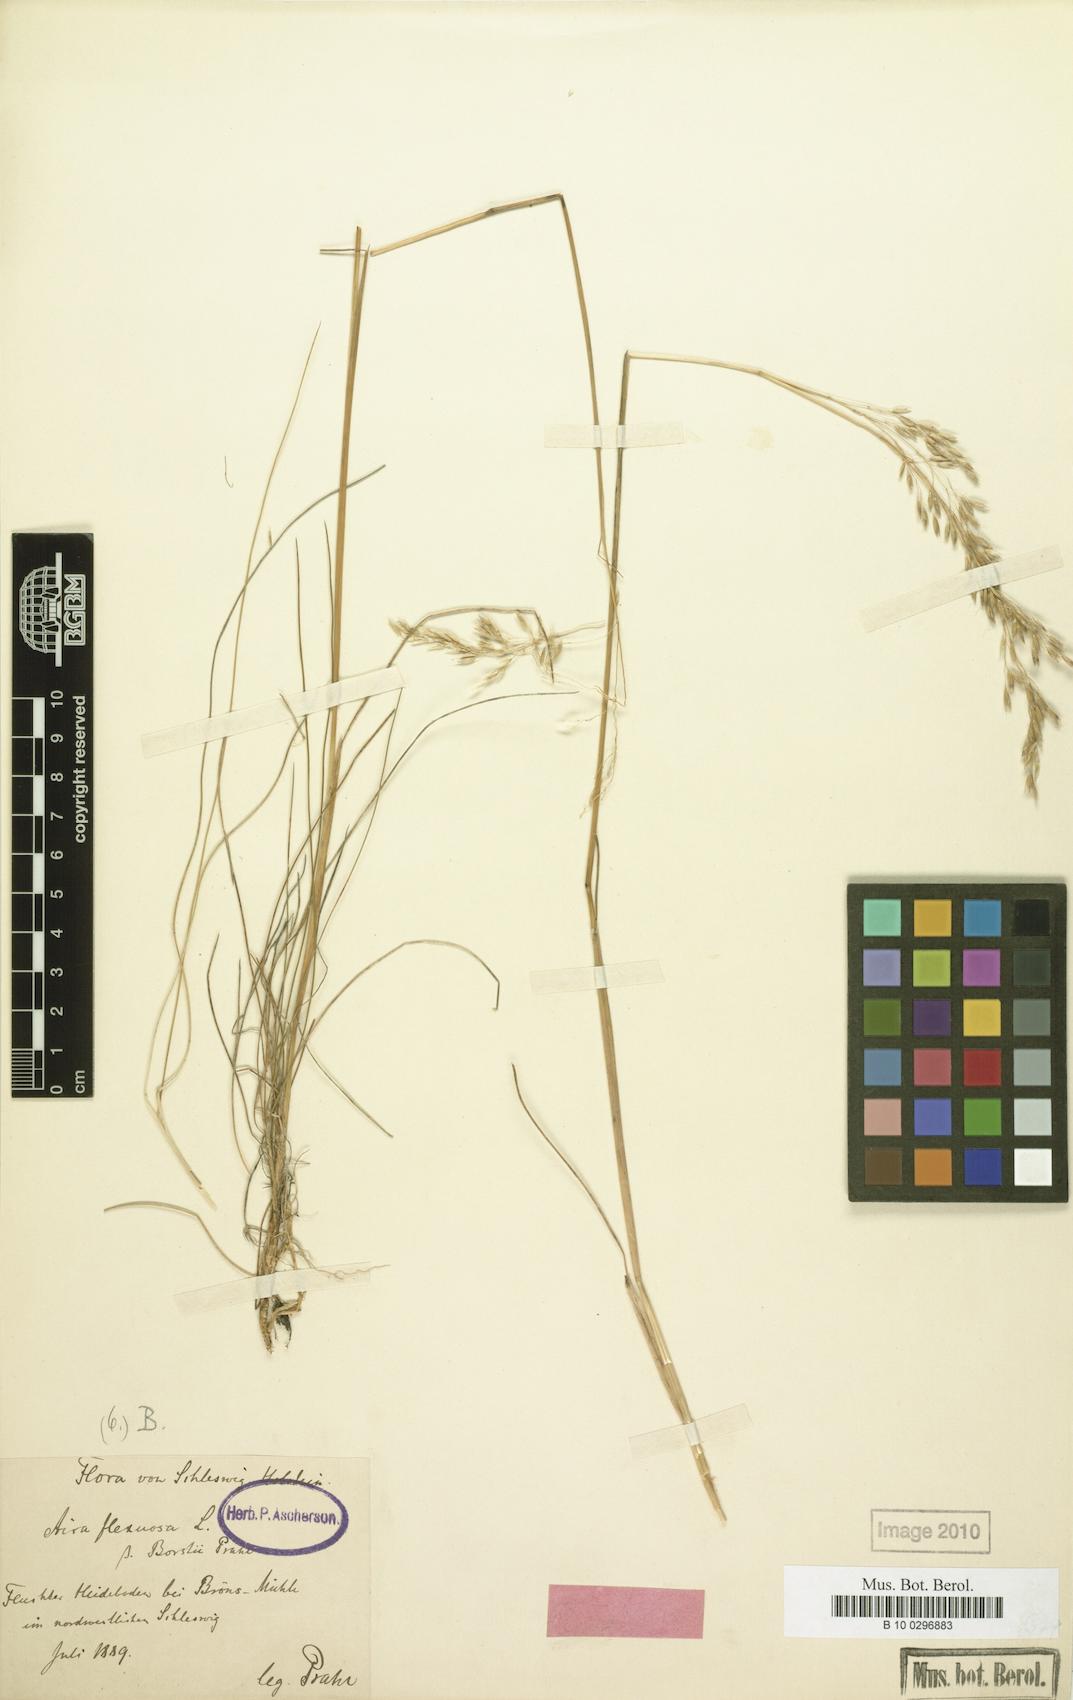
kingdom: Plantae
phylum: Tracheophyta
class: Liliopsida
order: Poales
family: Poaceae
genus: Avenella
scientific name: Avenella flexuosa
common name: Wavy hairgrass
